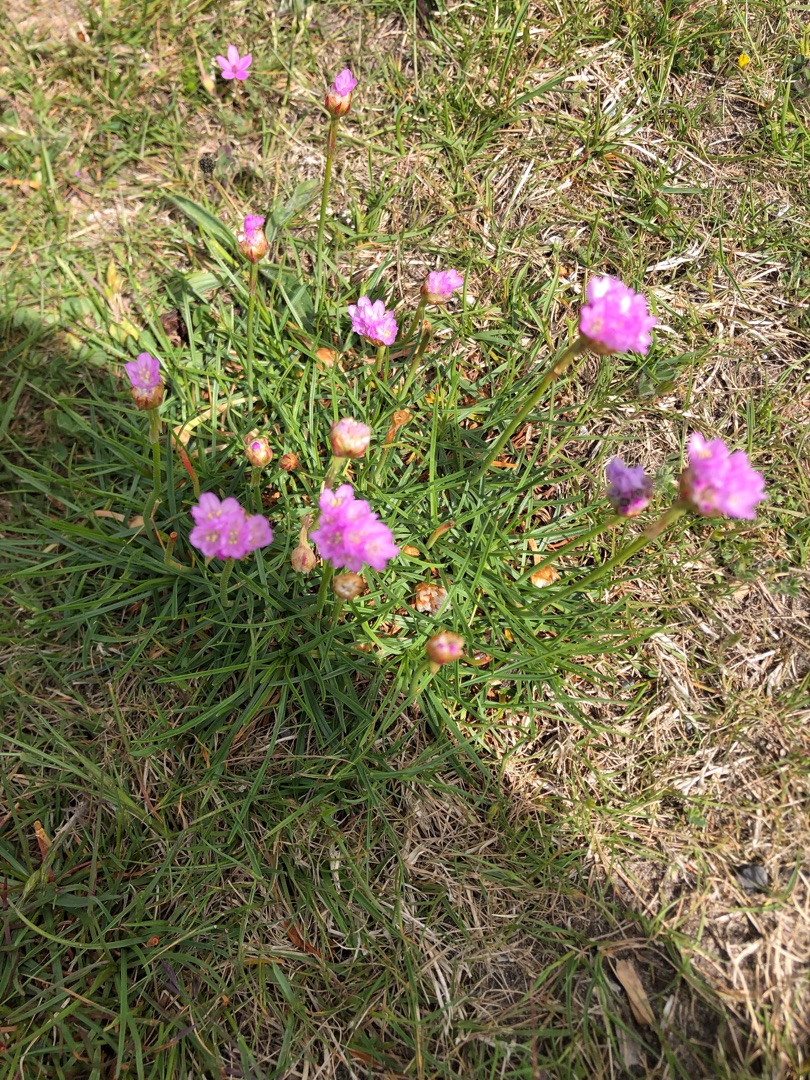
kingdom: Plantae
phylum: Tracheophyta
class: Magnoliopsida
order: Caryophyllales
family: Plumbaginaceae
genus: Armeria
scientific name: Armeria maritima
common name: Engelskgræs
